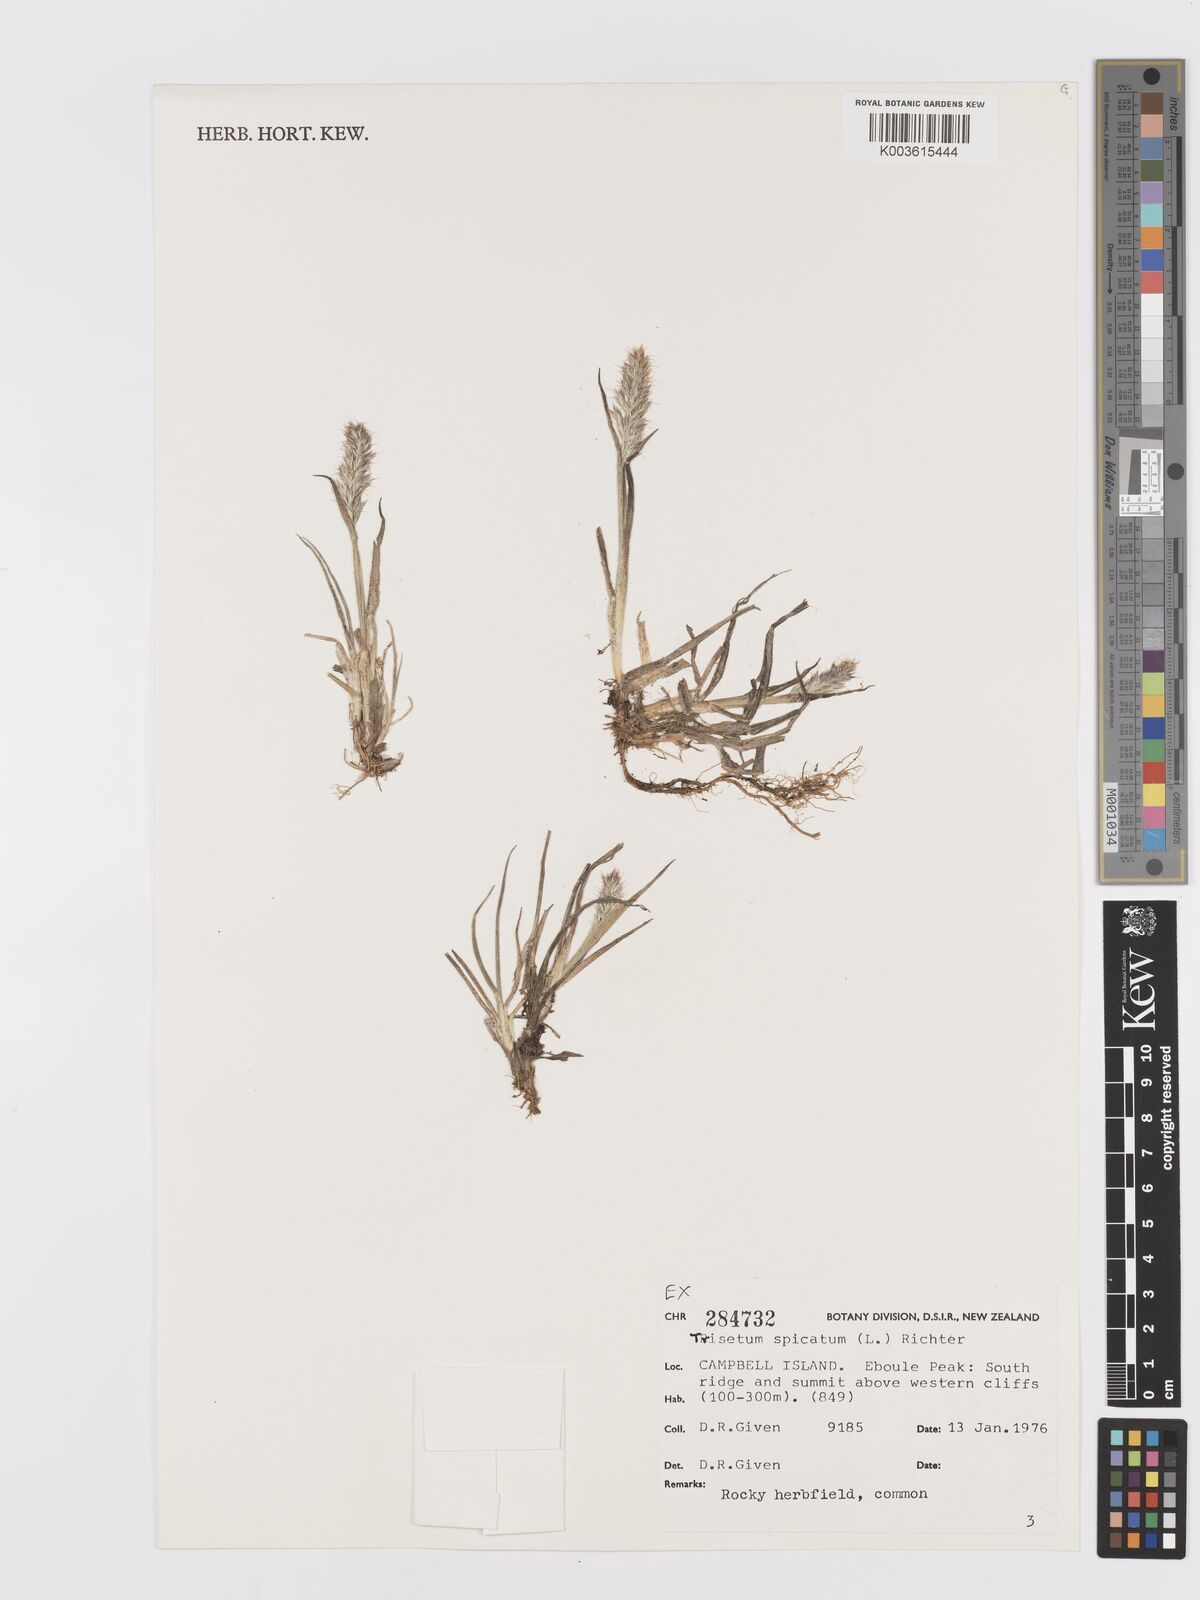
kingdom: Plantae
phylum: Tracheophyta
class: Liliopsida
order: Poales
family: Poaceae
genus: Koeleria
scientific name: Koeleria spicata
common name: Mountain trisetum
